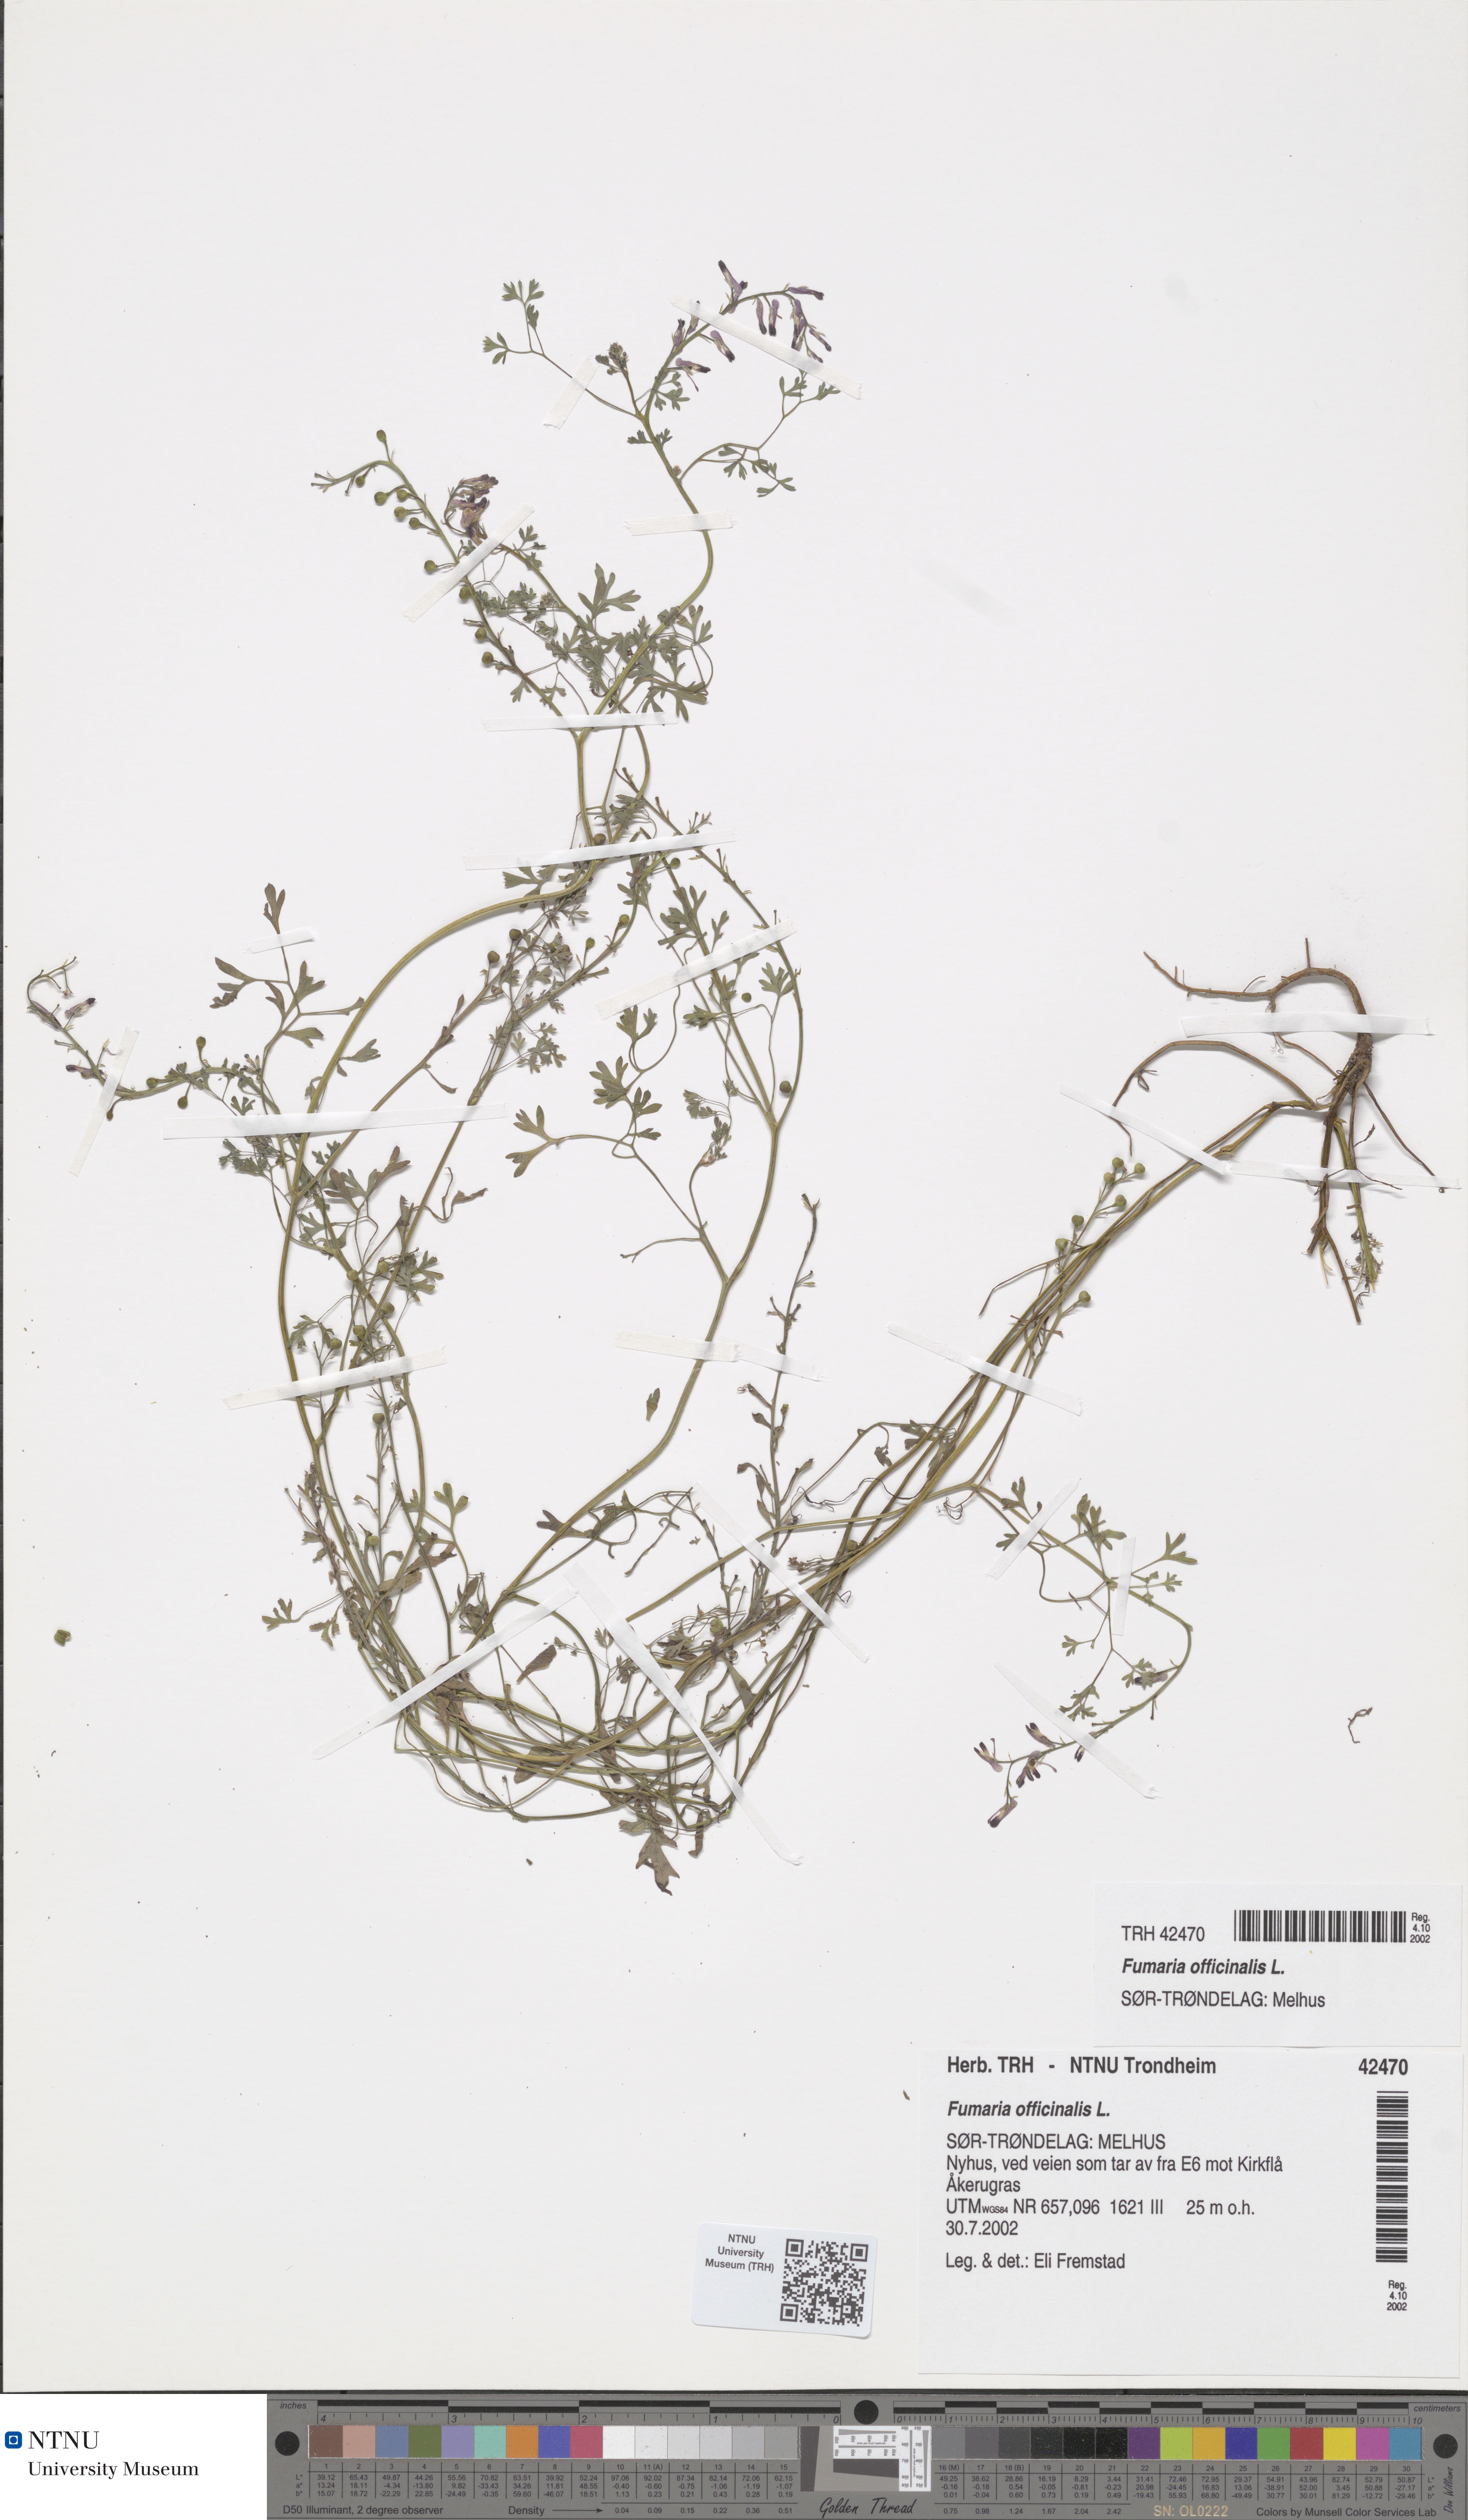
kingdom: Plantae
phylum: Tracheophyta
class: Magnoliopsida
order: Ranunculales
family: Papaveraceae
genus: Fumaria
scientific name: Fumaria officinalis
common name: Common fumitory
